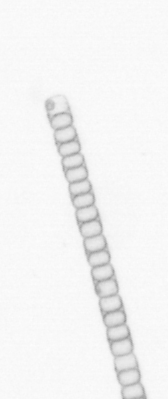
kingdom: Chromista
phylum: Ochrophyta
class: Bacillariophyceae
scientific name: Bacillariophyceae
